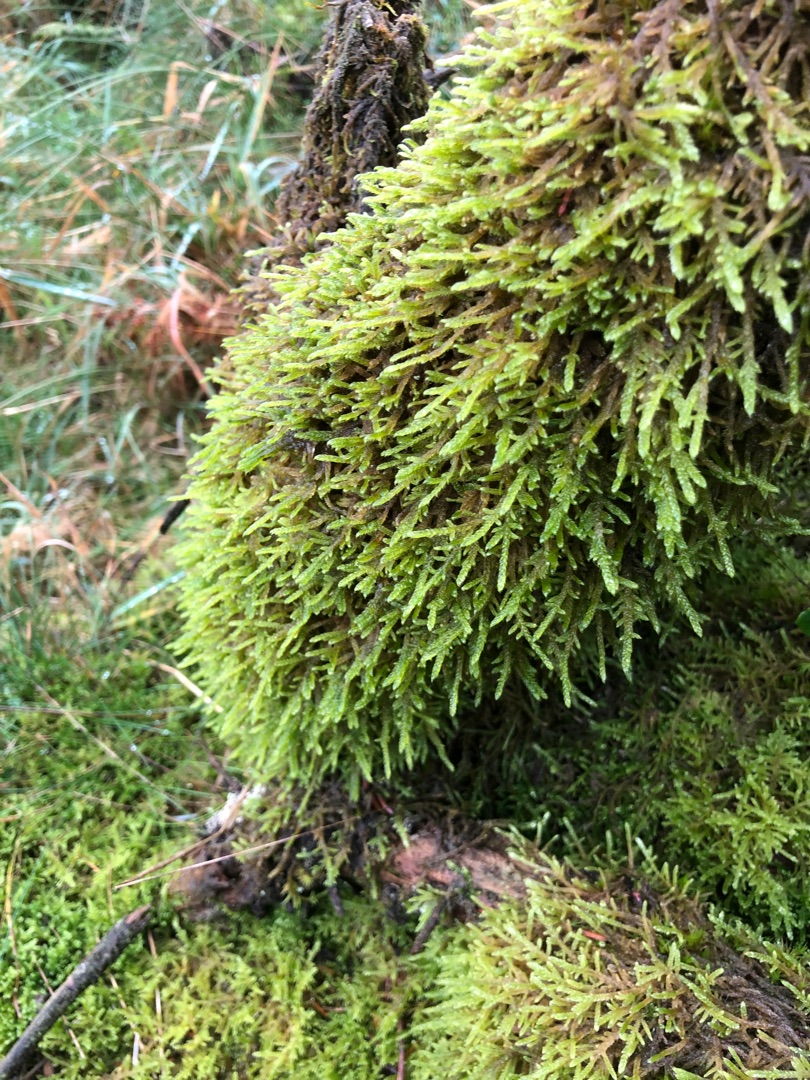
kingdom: Plantae
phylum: Bryophyta
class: Bryopsida
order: Hypnales
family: Hypnaceae
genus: Hypnum
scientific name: Hypnum cupressiforme
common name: Almindelig cypresmos
